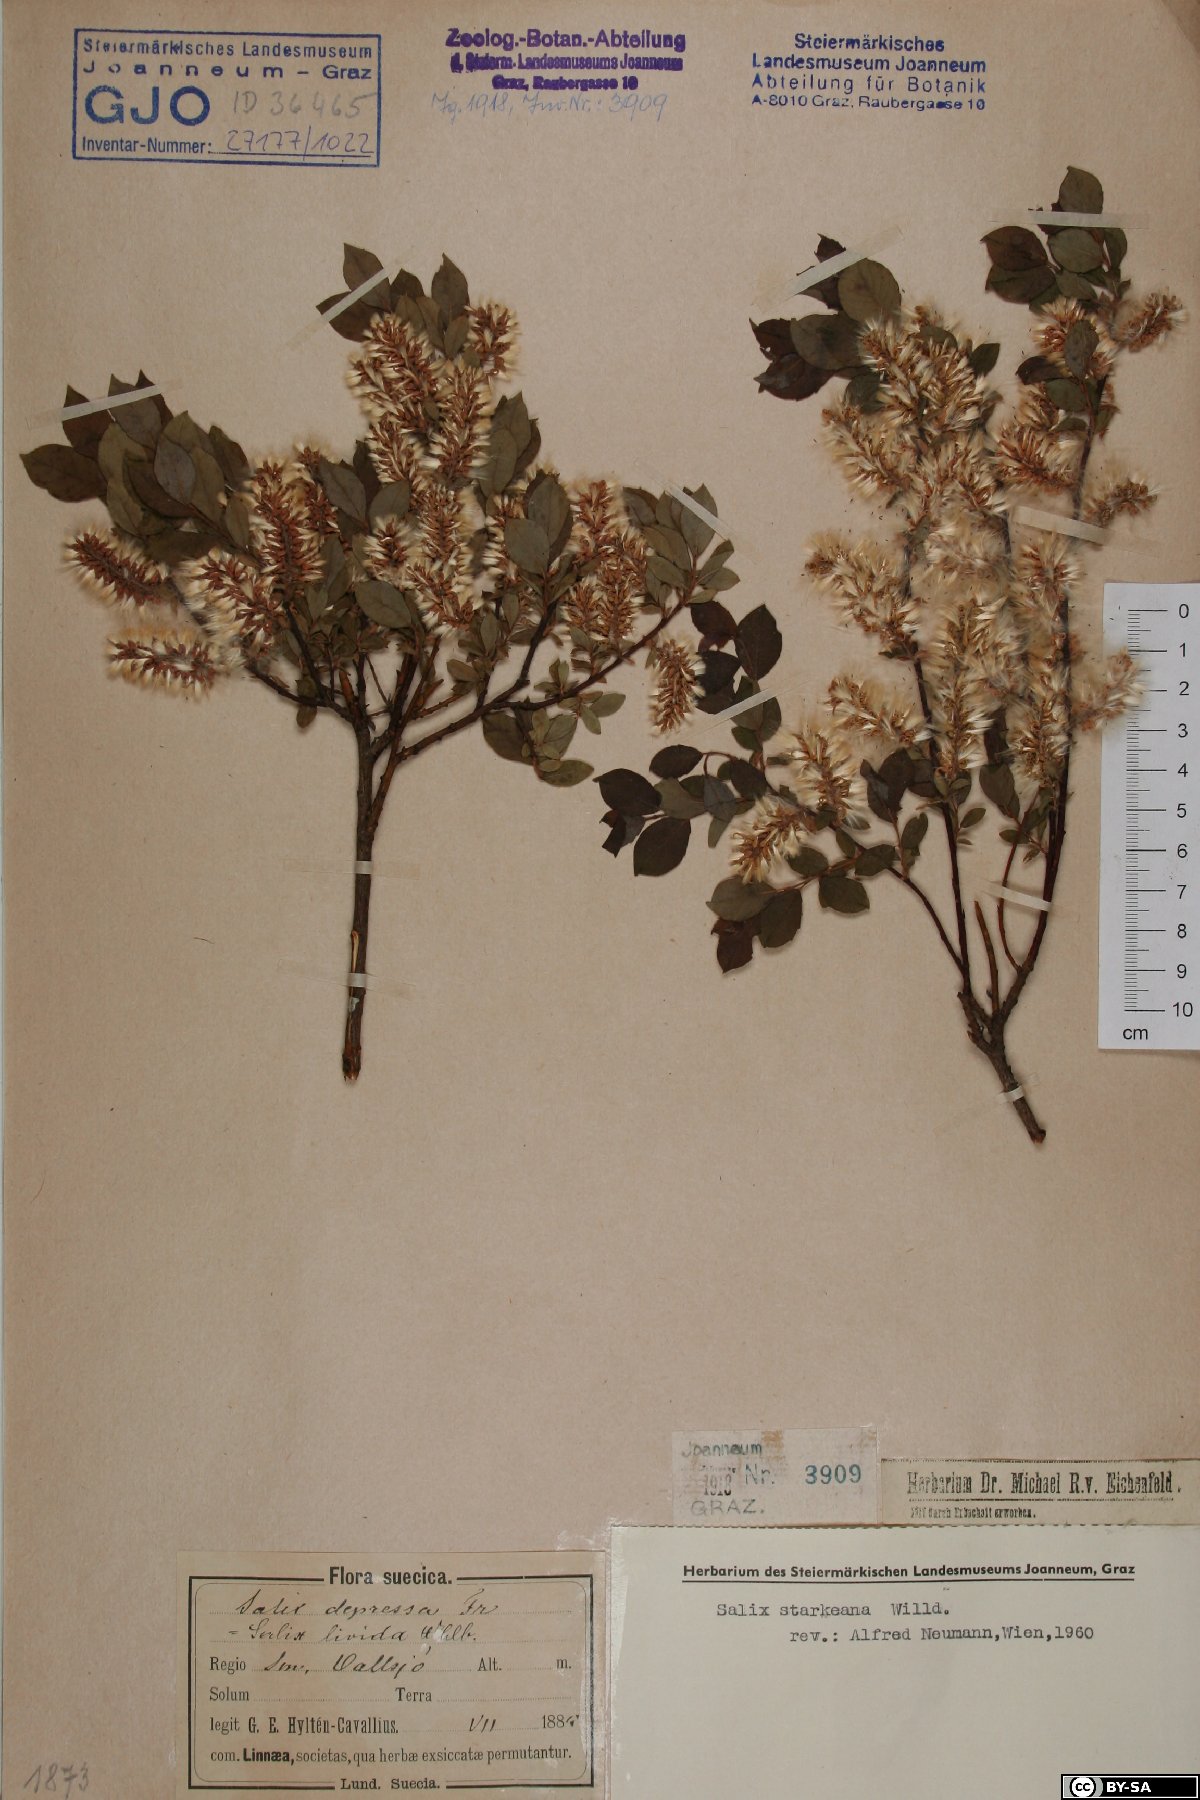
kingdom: Plantae
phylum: Tracheophyta
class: Magnoliopsida
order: Malpighiales
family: Salicaceae
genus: Salix
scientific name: Salix starkeana
